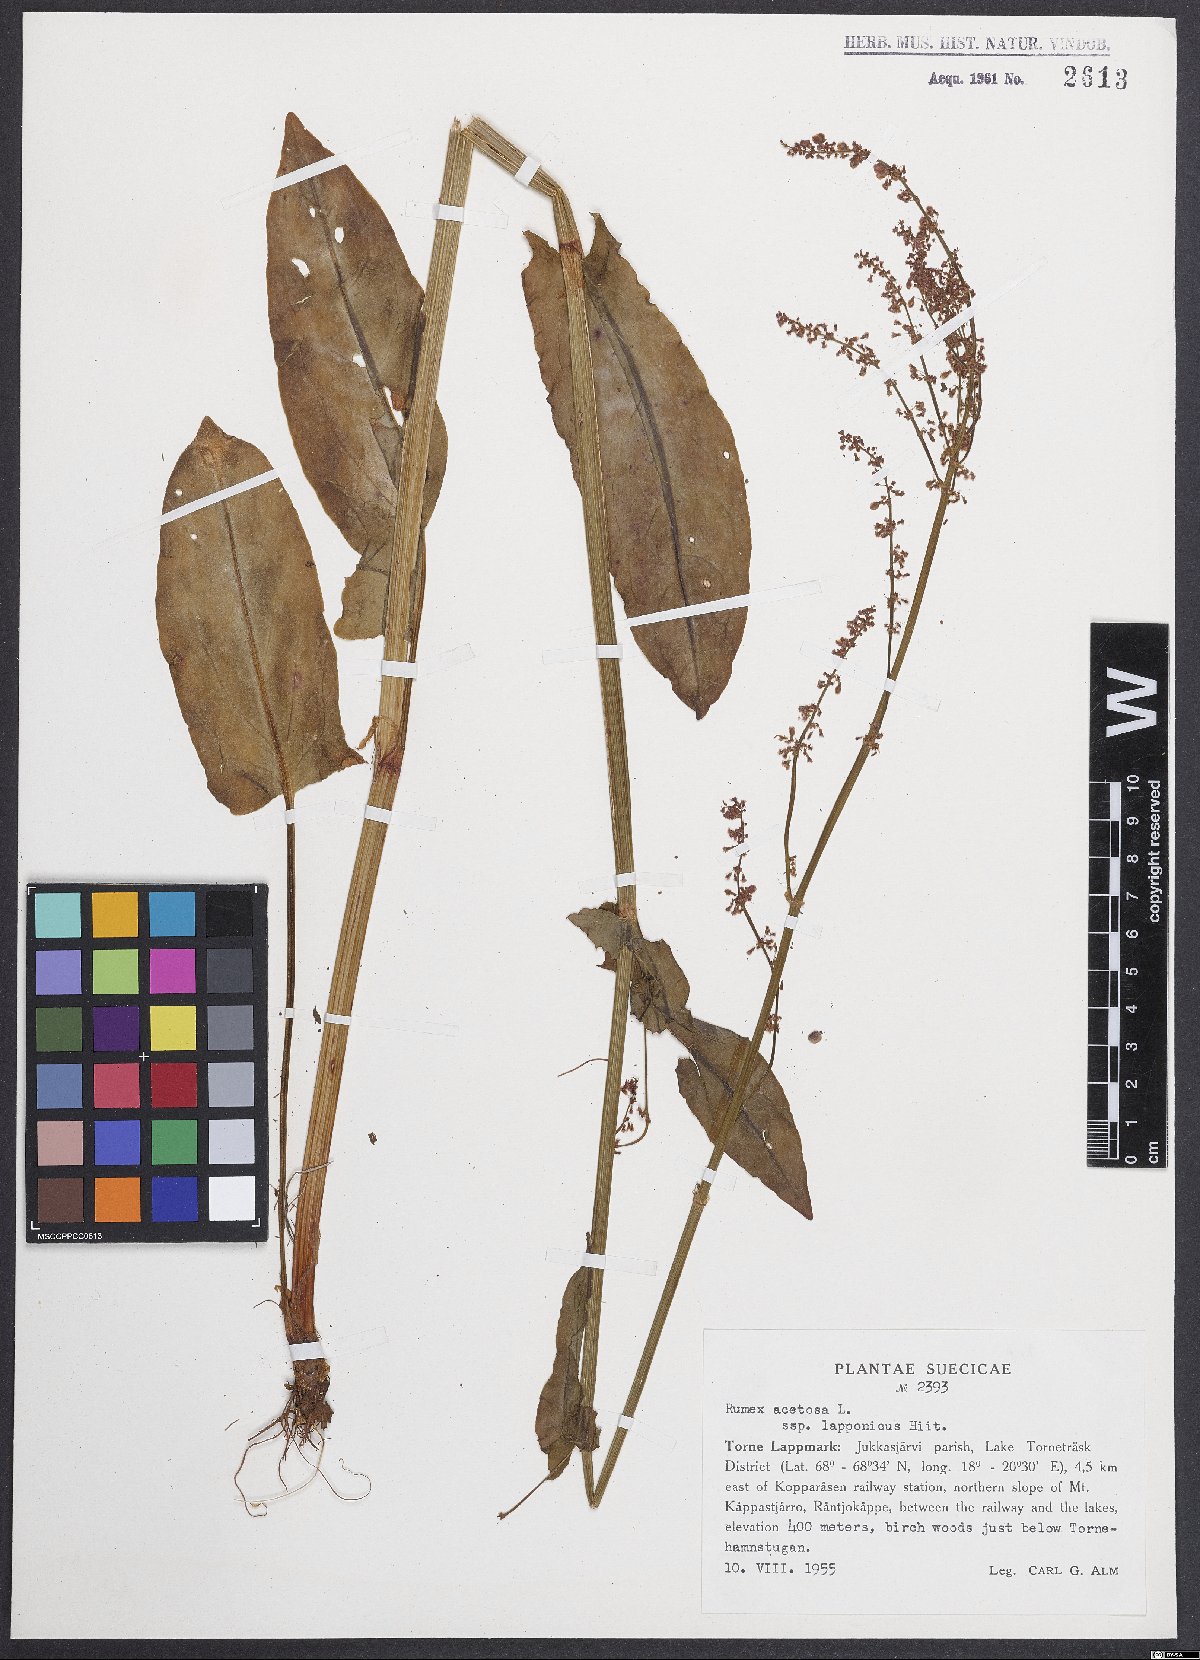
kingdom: Plantae
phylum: Tracheophyta
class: Magnoliopsida
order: Caryophyllales
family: Polygonaceae
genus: Rumex
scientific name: Rumex acetosa
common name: Garden sorrel
